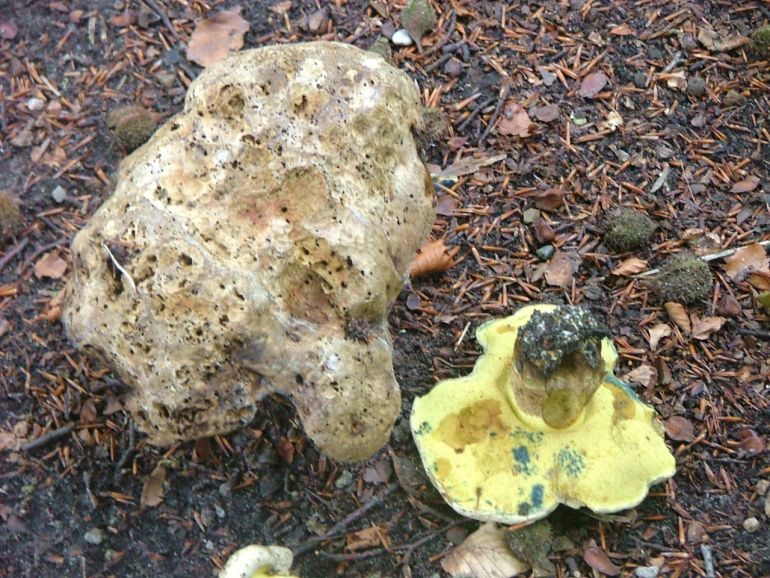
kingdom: Fungi
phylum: Basidiomycota
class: Agaricomycetes
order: Boletales
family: Boletaceae
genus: Caloboletus
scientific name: Caloboletus radicans
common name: rod-rørhat
